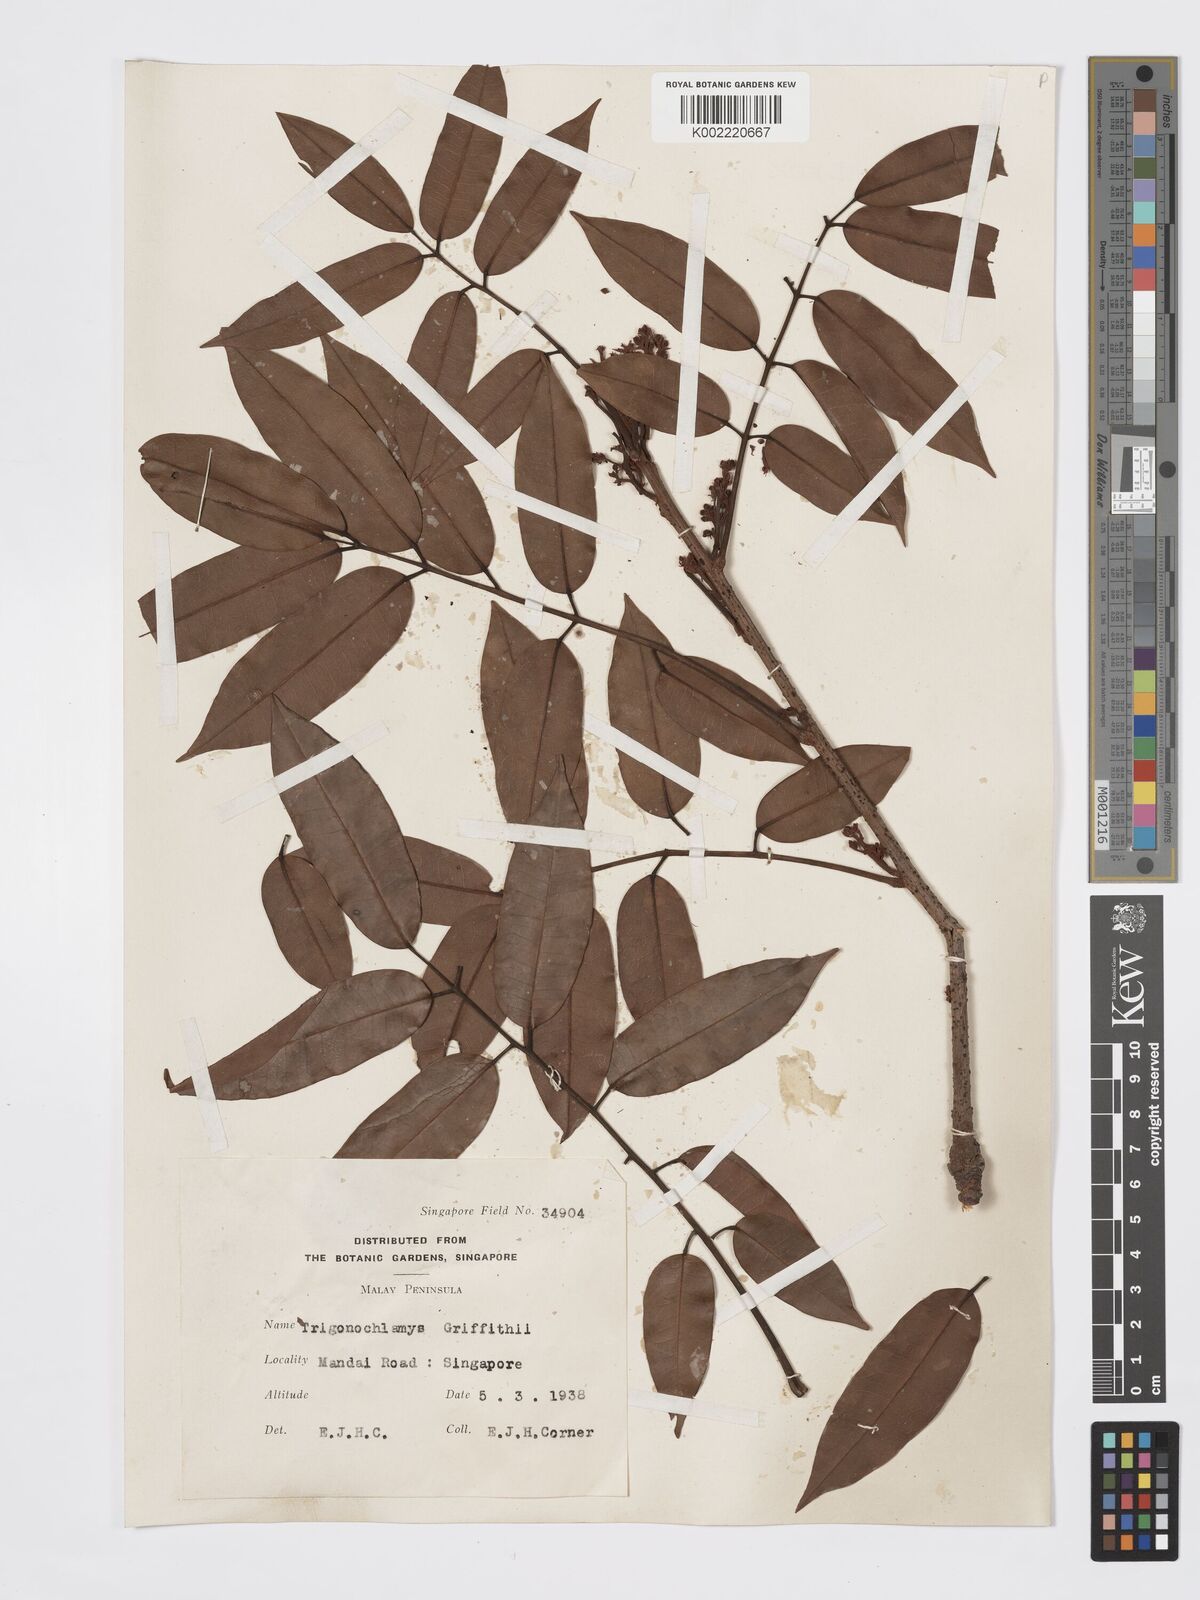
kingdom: Plantae
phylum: Tracheophyta
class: Magnoliopsida
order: Sapindales
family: Burseraceae
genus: Santiria
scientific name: Santiria griffithii
